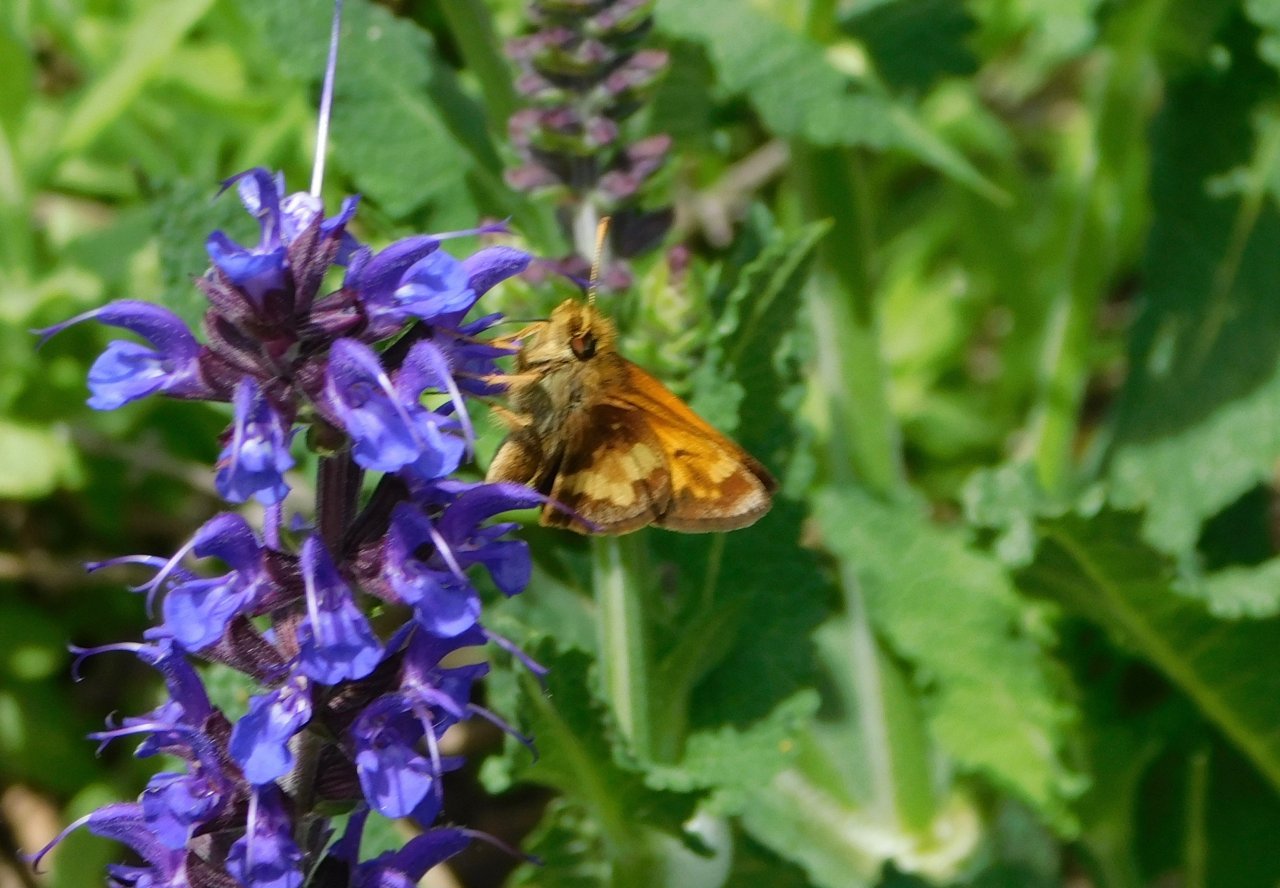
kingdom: Animalia
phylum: Arthropoda
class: Insecta
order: Lepidoptera
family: Hesperiidae
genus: Lon
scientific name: Lon hobomok
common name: Hobomok Skipper
